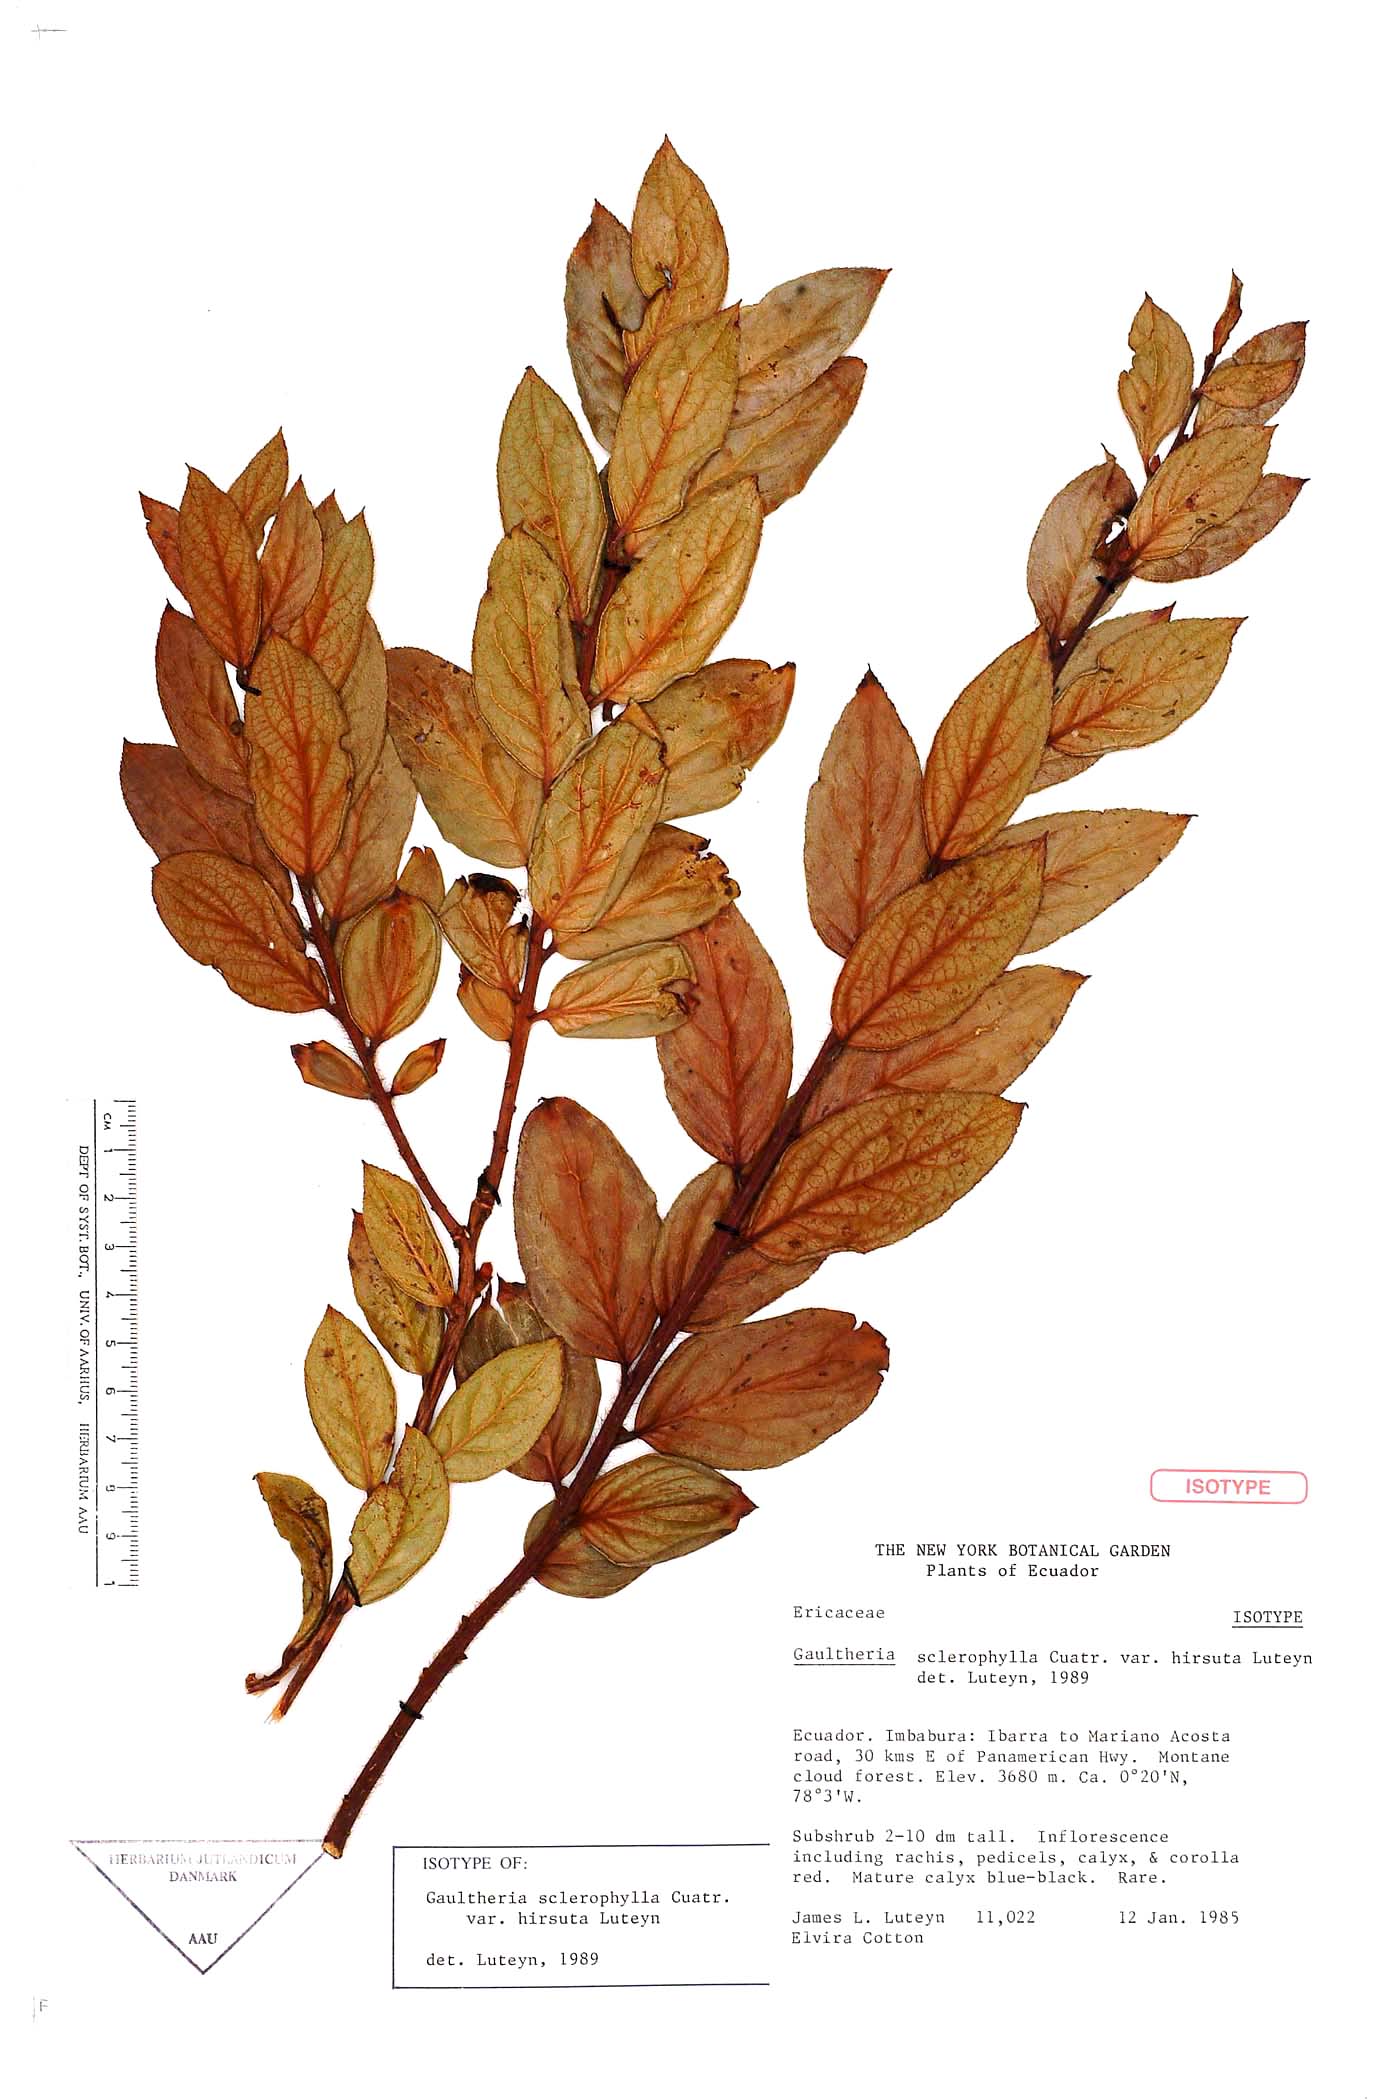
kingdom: Plantae
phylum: Tracheophyta
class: Magnoliopsida
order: Ericales
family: Ericaceae
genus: Gaultheria
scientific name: Gaultheria sclerophylla
